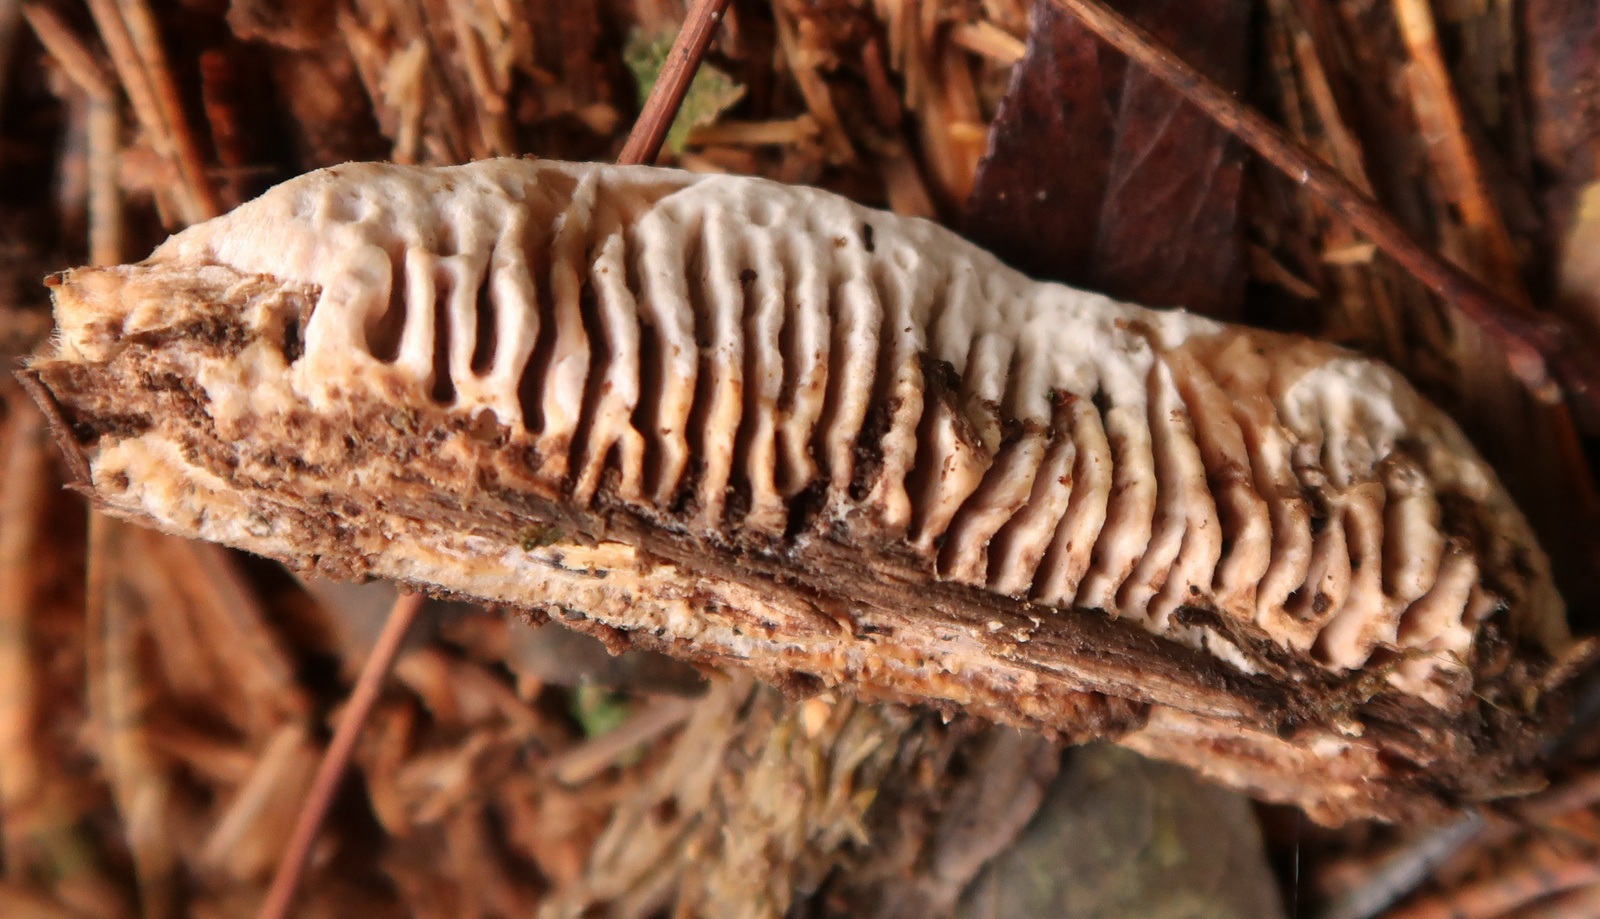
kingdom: Fungi
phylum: Basidiomycota
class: Agaricomycetes
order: Gloeophyllales
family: Gloeophyllaceae
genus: Gloeophyllum
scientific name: Gloeophyllum sepiarium
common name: fyrre-korkhat
